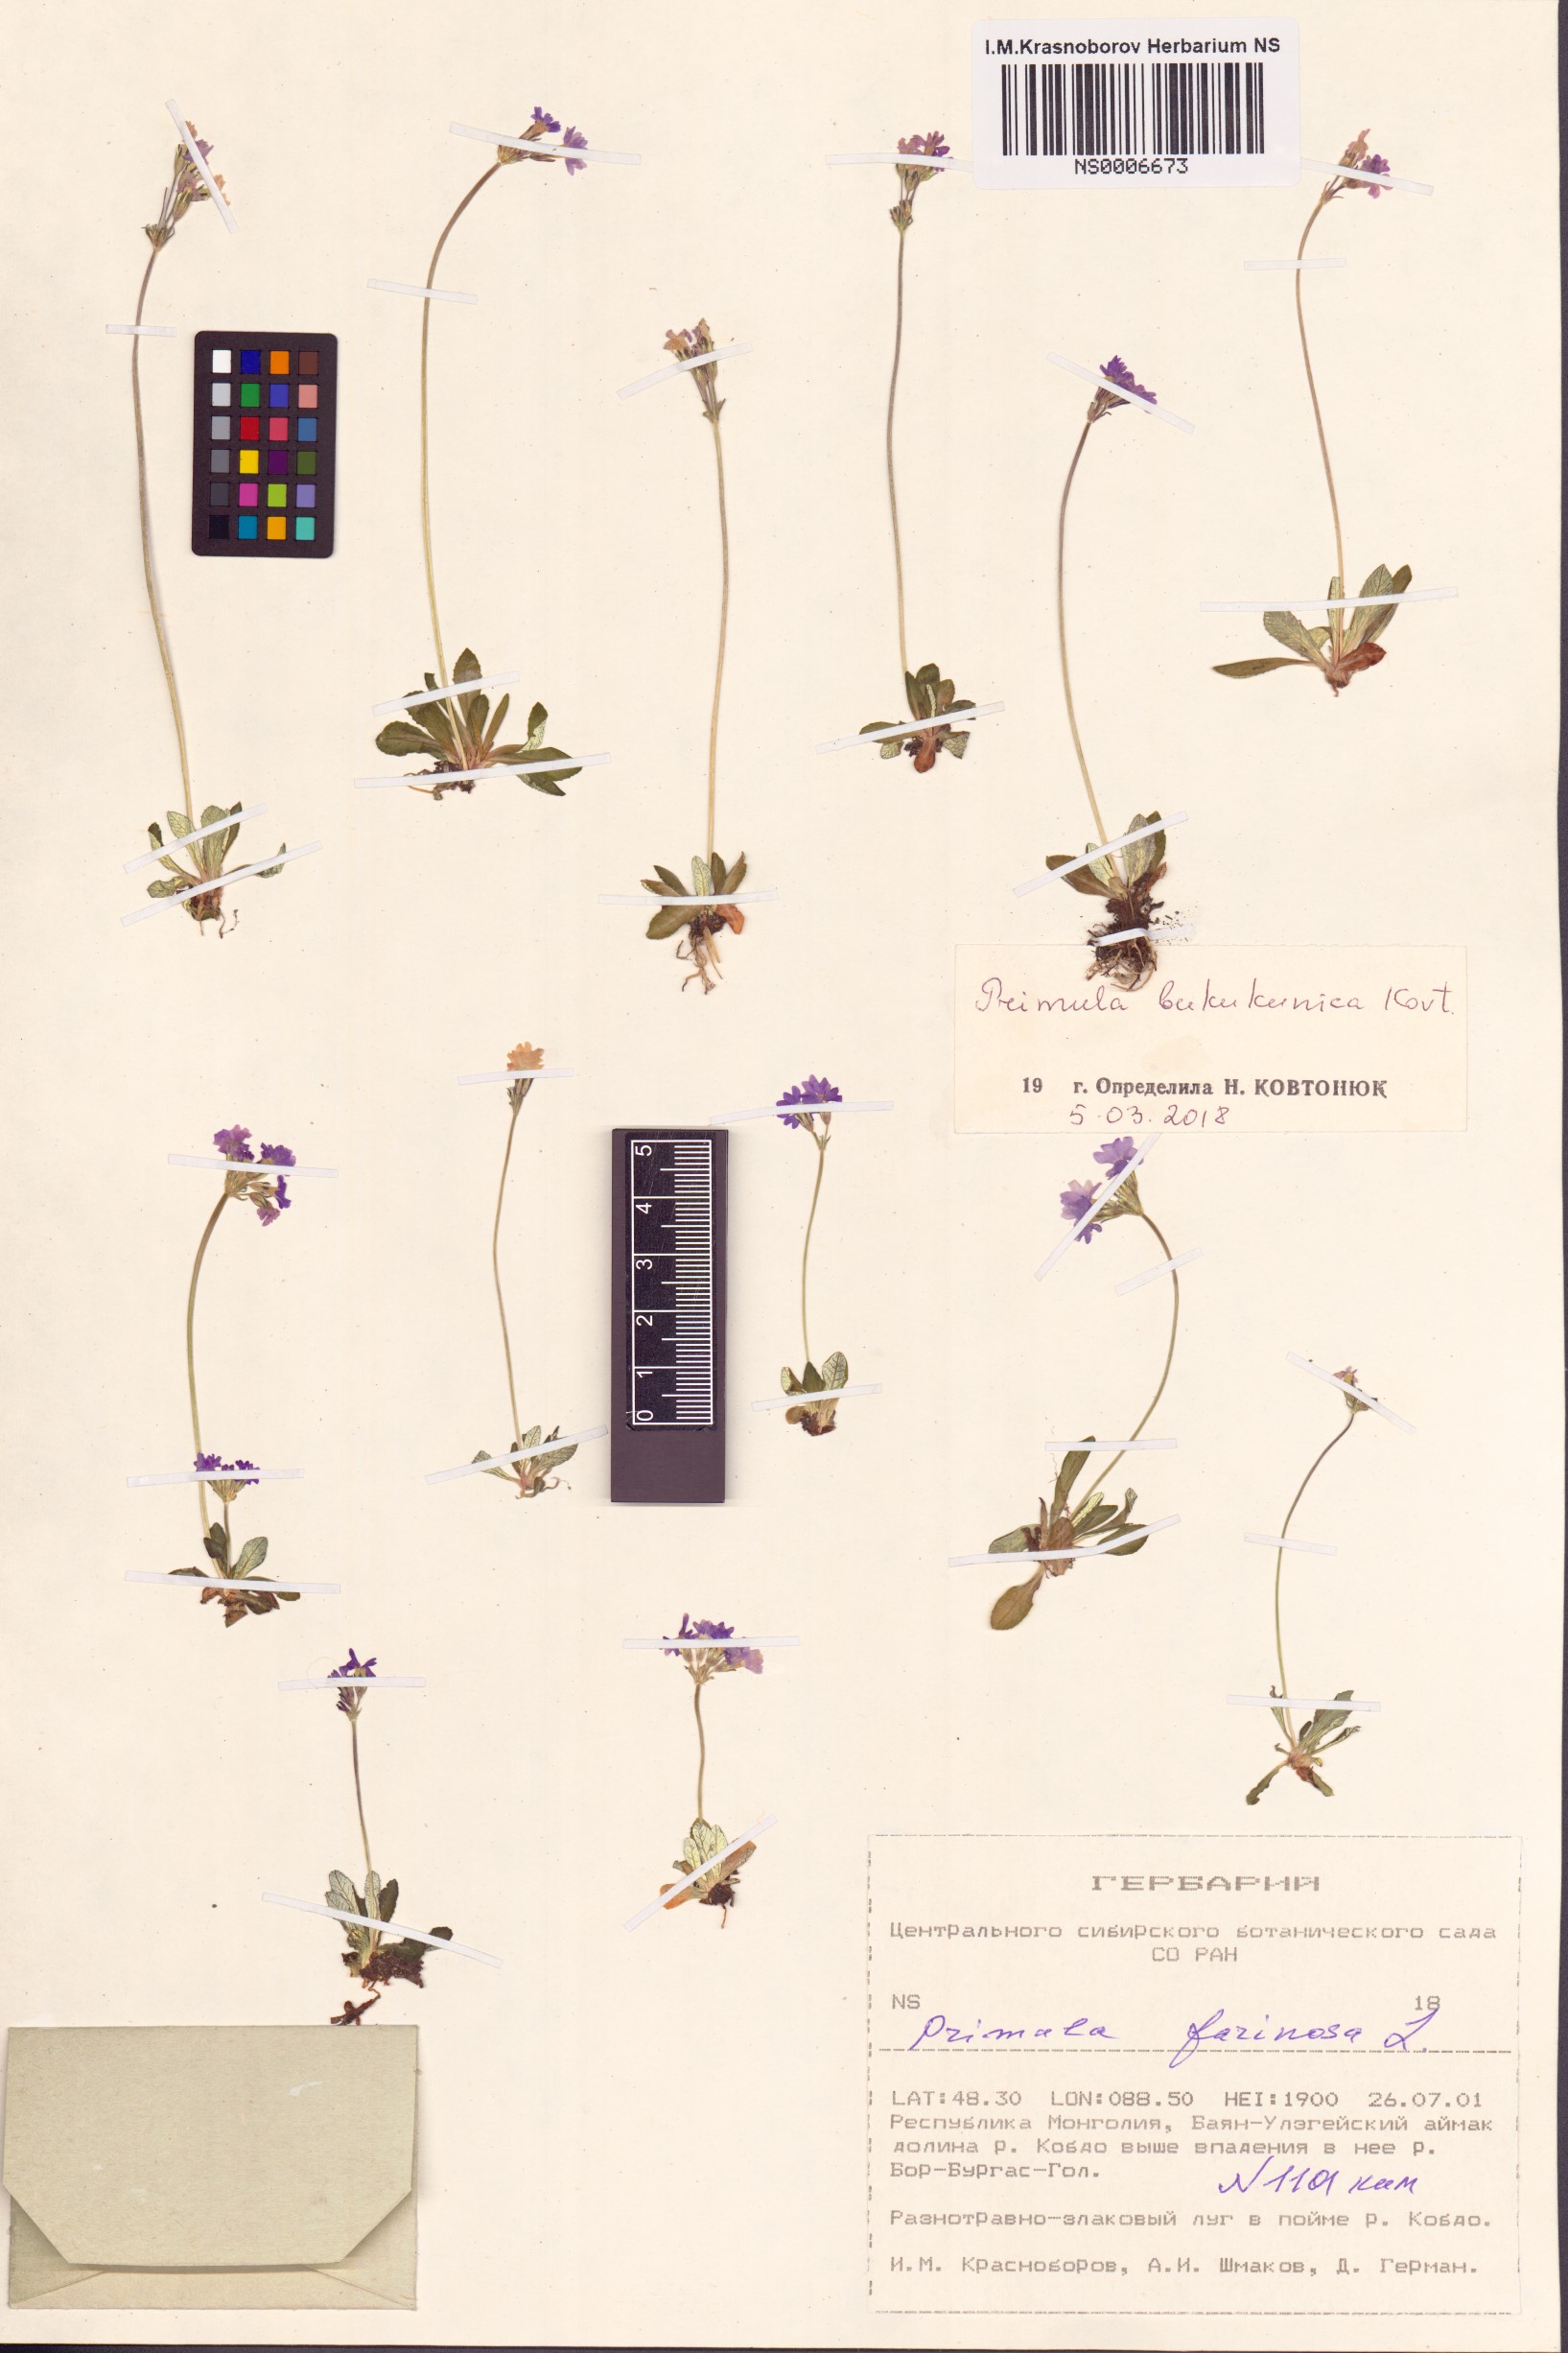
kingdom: Plantae
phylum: Tracheophyta
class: Magnoliopsida
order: Ericales
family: Primulaceae
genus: Primula
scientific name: Primula bukukunica
